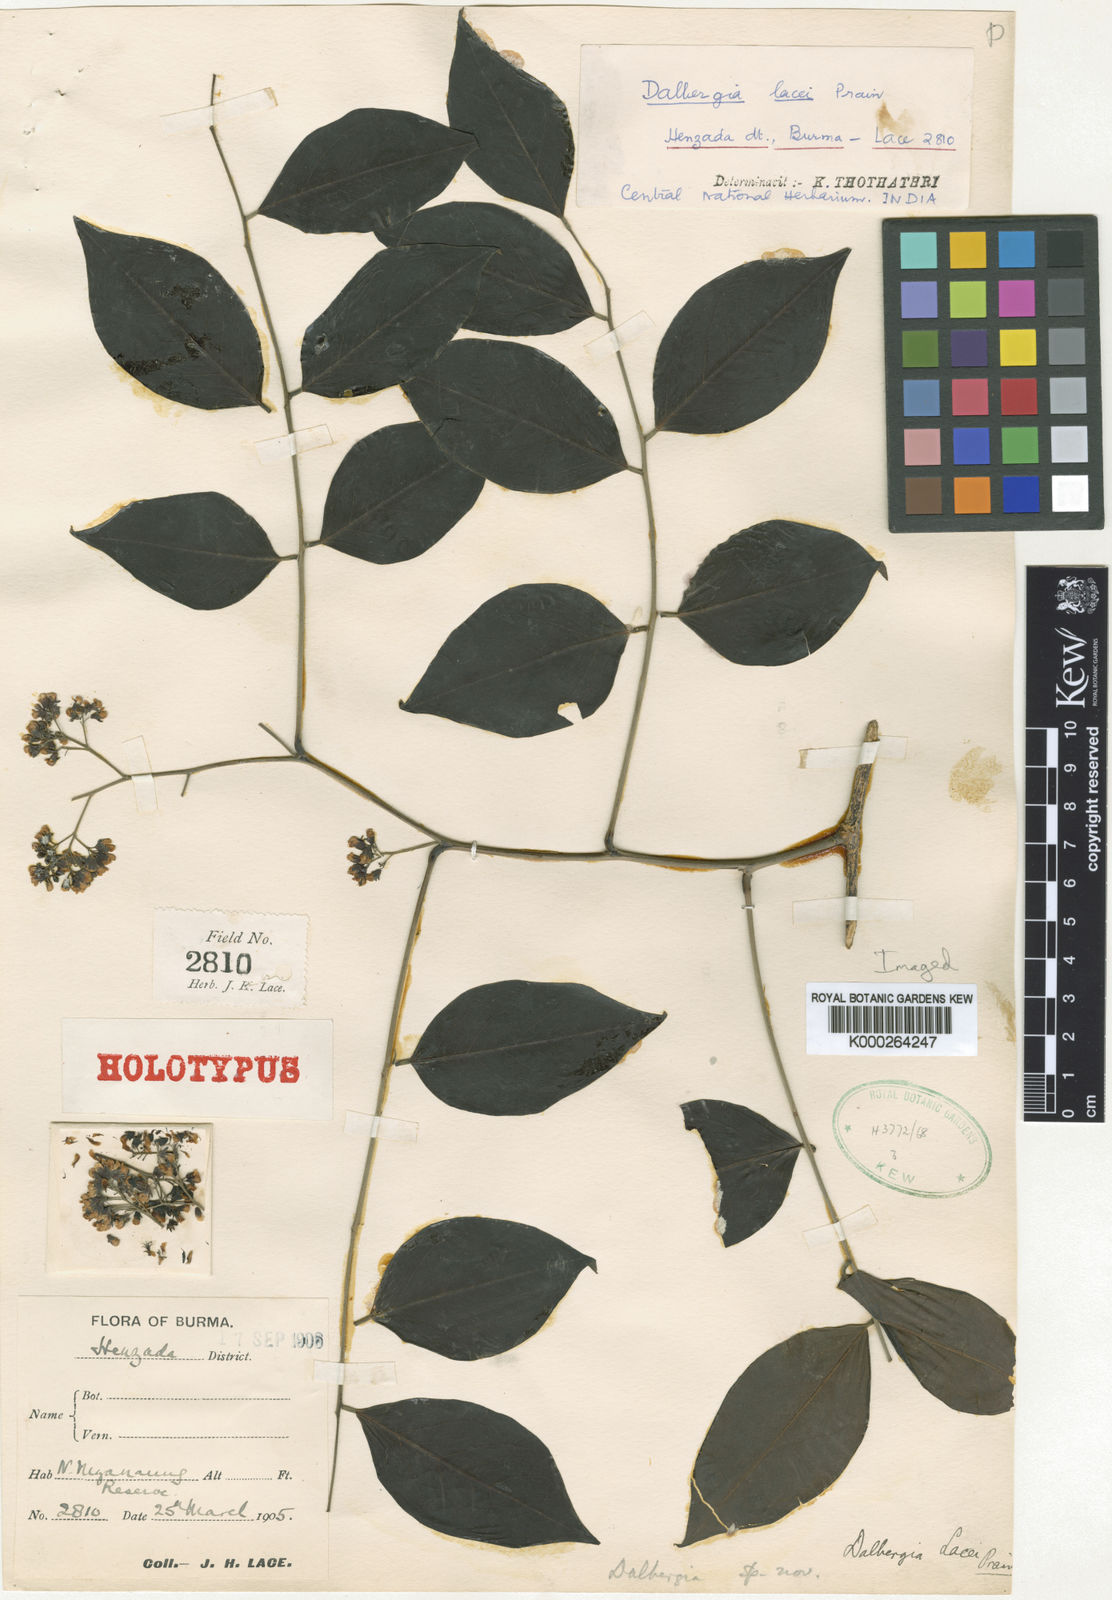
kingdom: Plantae
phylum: Tracheophyta
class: Magnoliopsida
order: Fabales
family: Fabaceae
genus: Dalbergia
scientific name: Dalbergia glomeriflora
